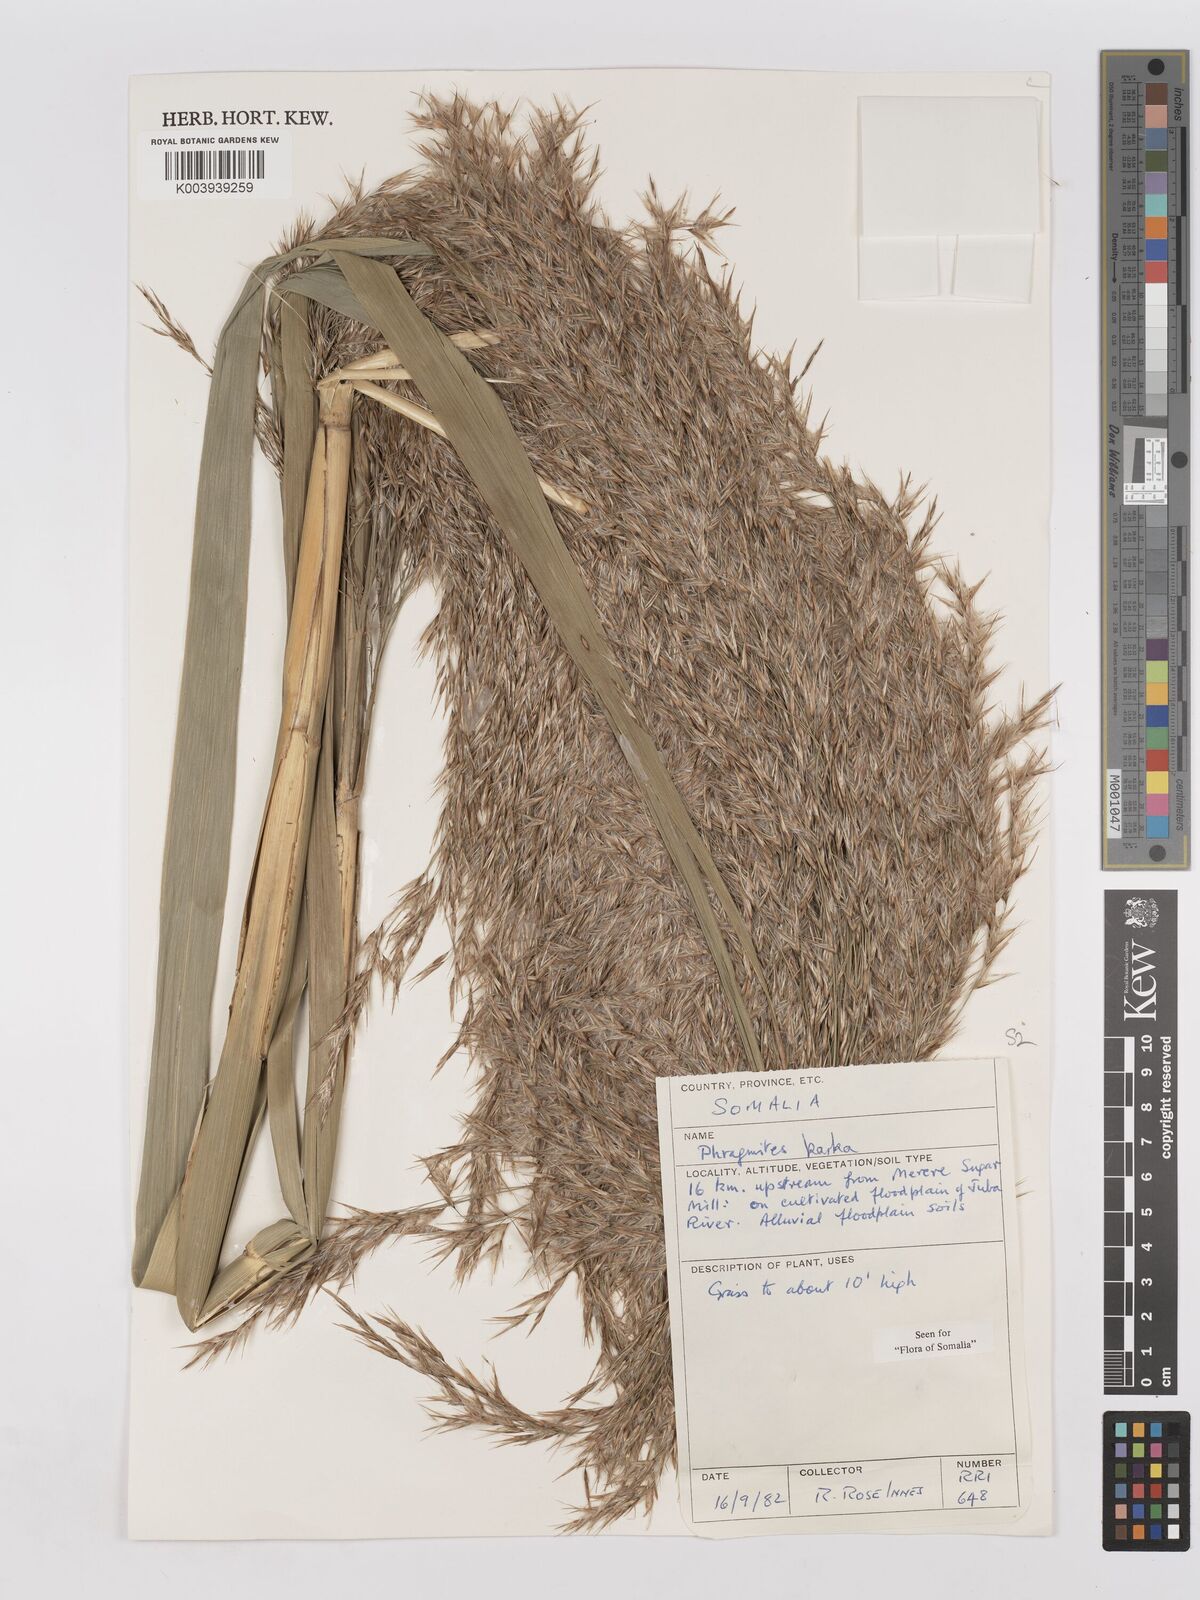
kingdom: Plantae
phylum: Tracheophyta
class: Liliopsida
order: Poales
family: Poaceae
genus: Phragmites
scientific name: Phragmites karka
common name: Tropical reed
